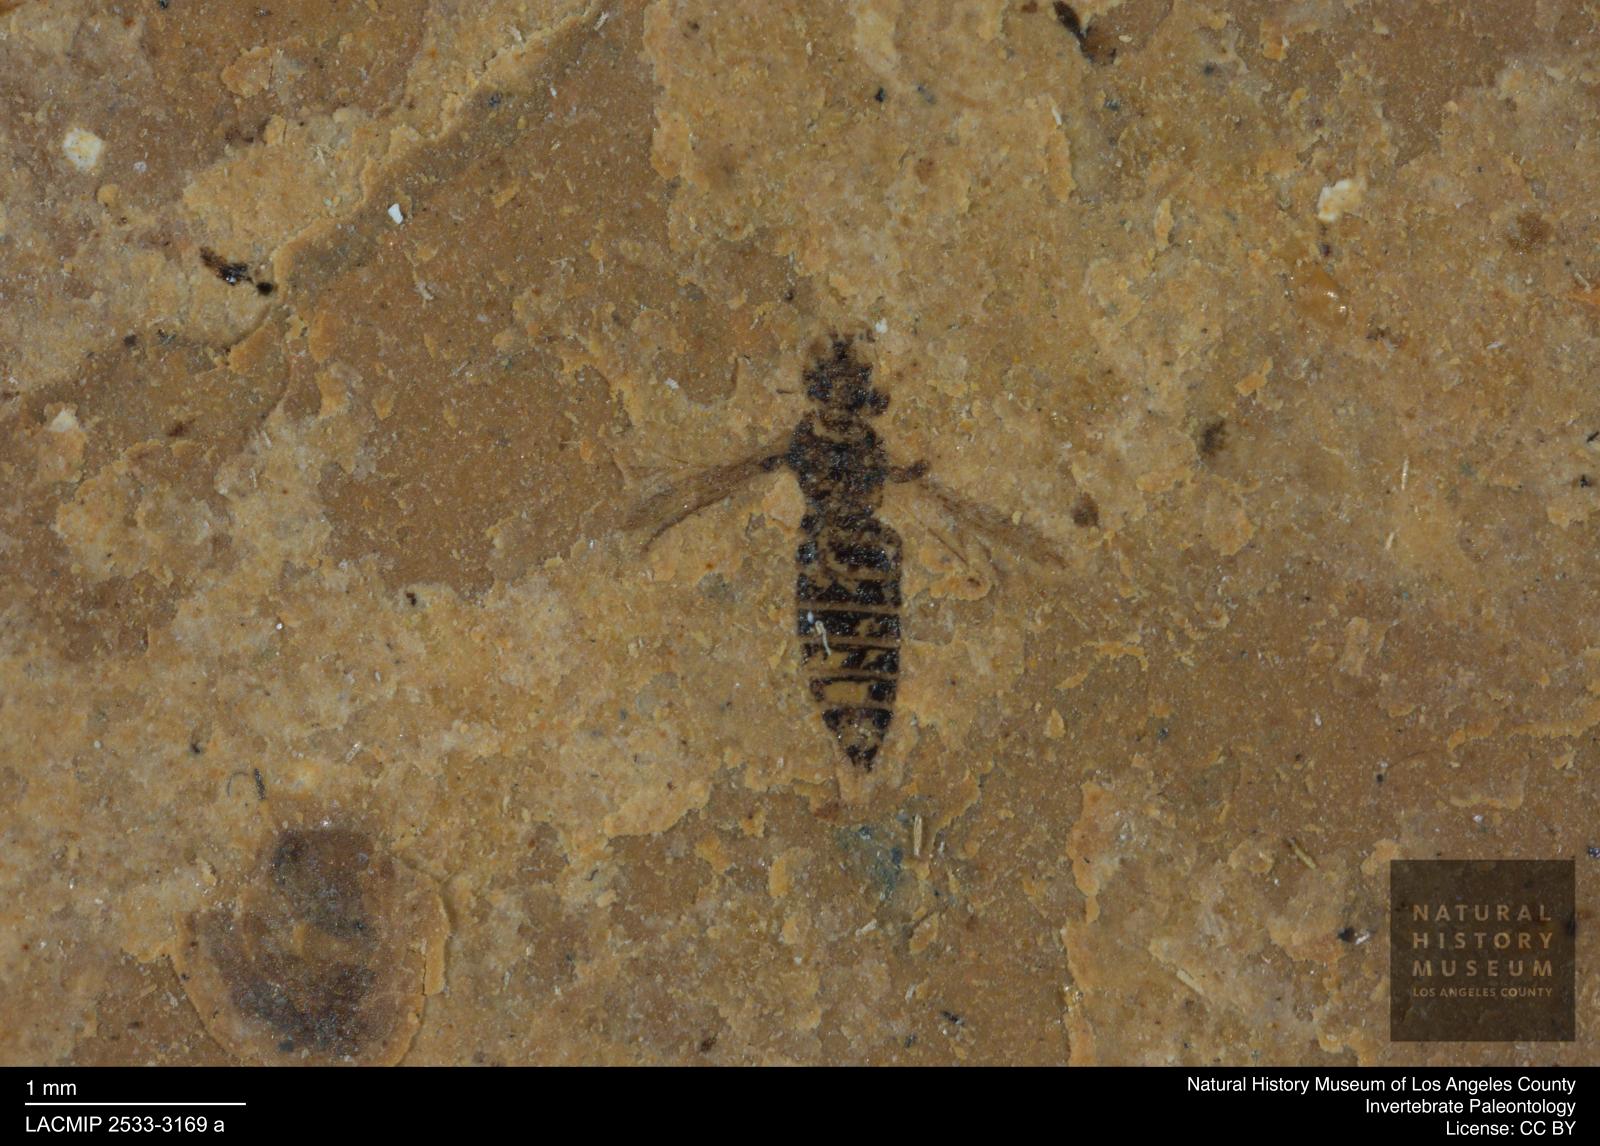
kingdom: Animalia
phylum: Arthropoda
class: Insecta
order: Thysanoptera
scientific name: Thysanoptera
